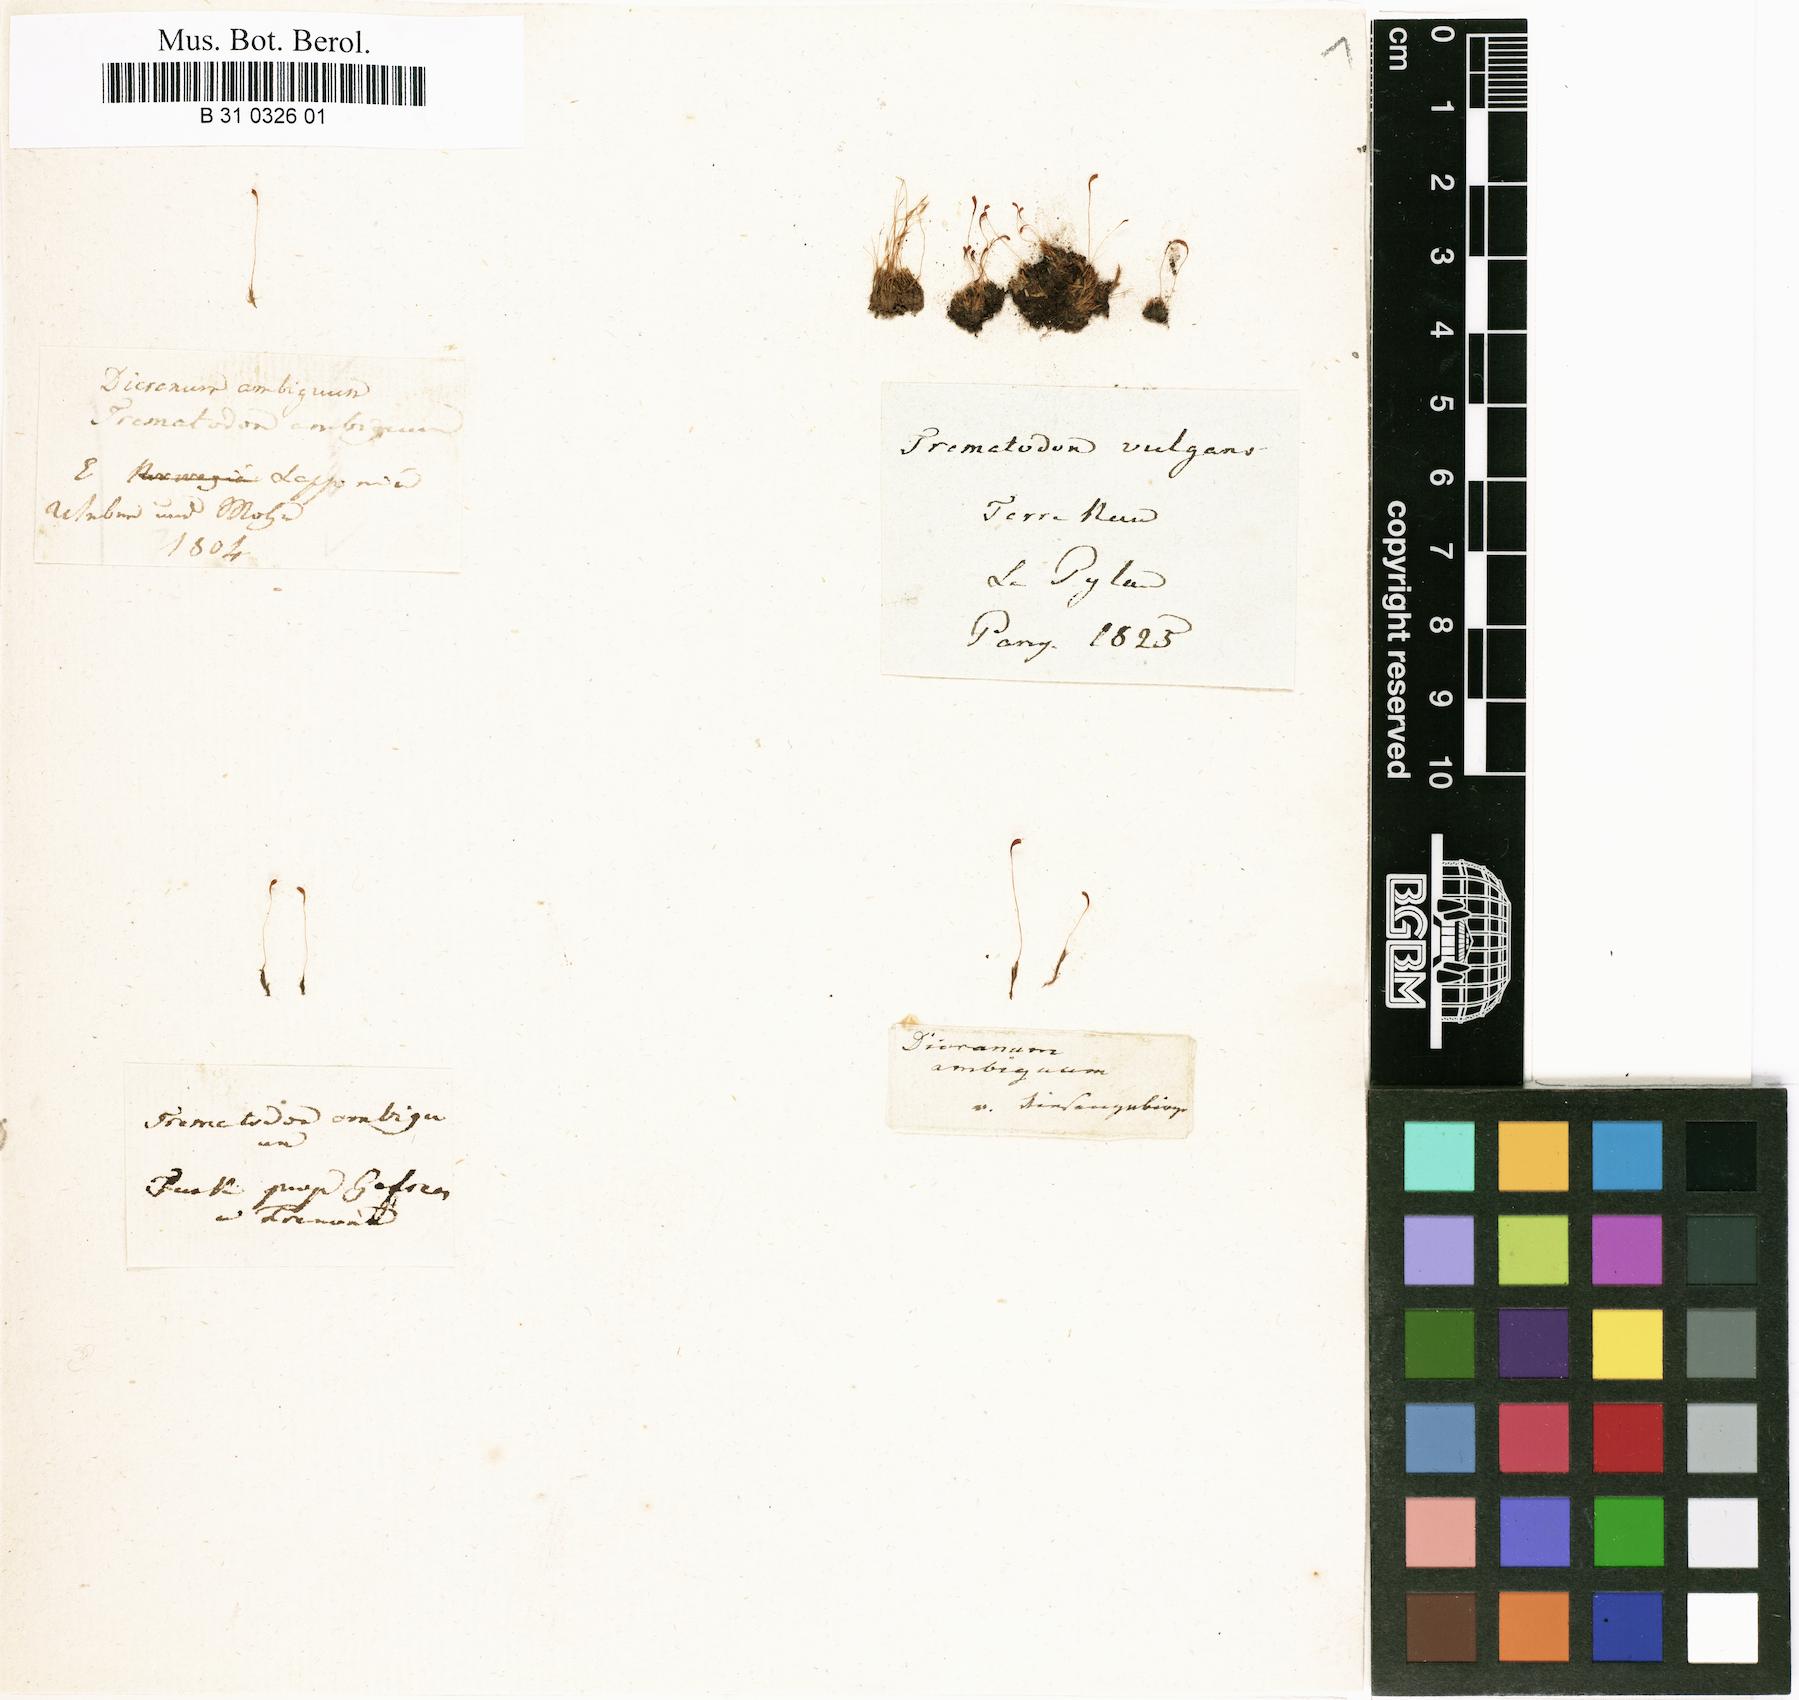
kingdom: Plantae
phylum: Bryophyta
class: Bryopsida
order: Dicranales
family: Bruchiaceae
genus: Trematodon
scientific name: Trematodon ambiguus
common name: Ambiguous long-necked moss
